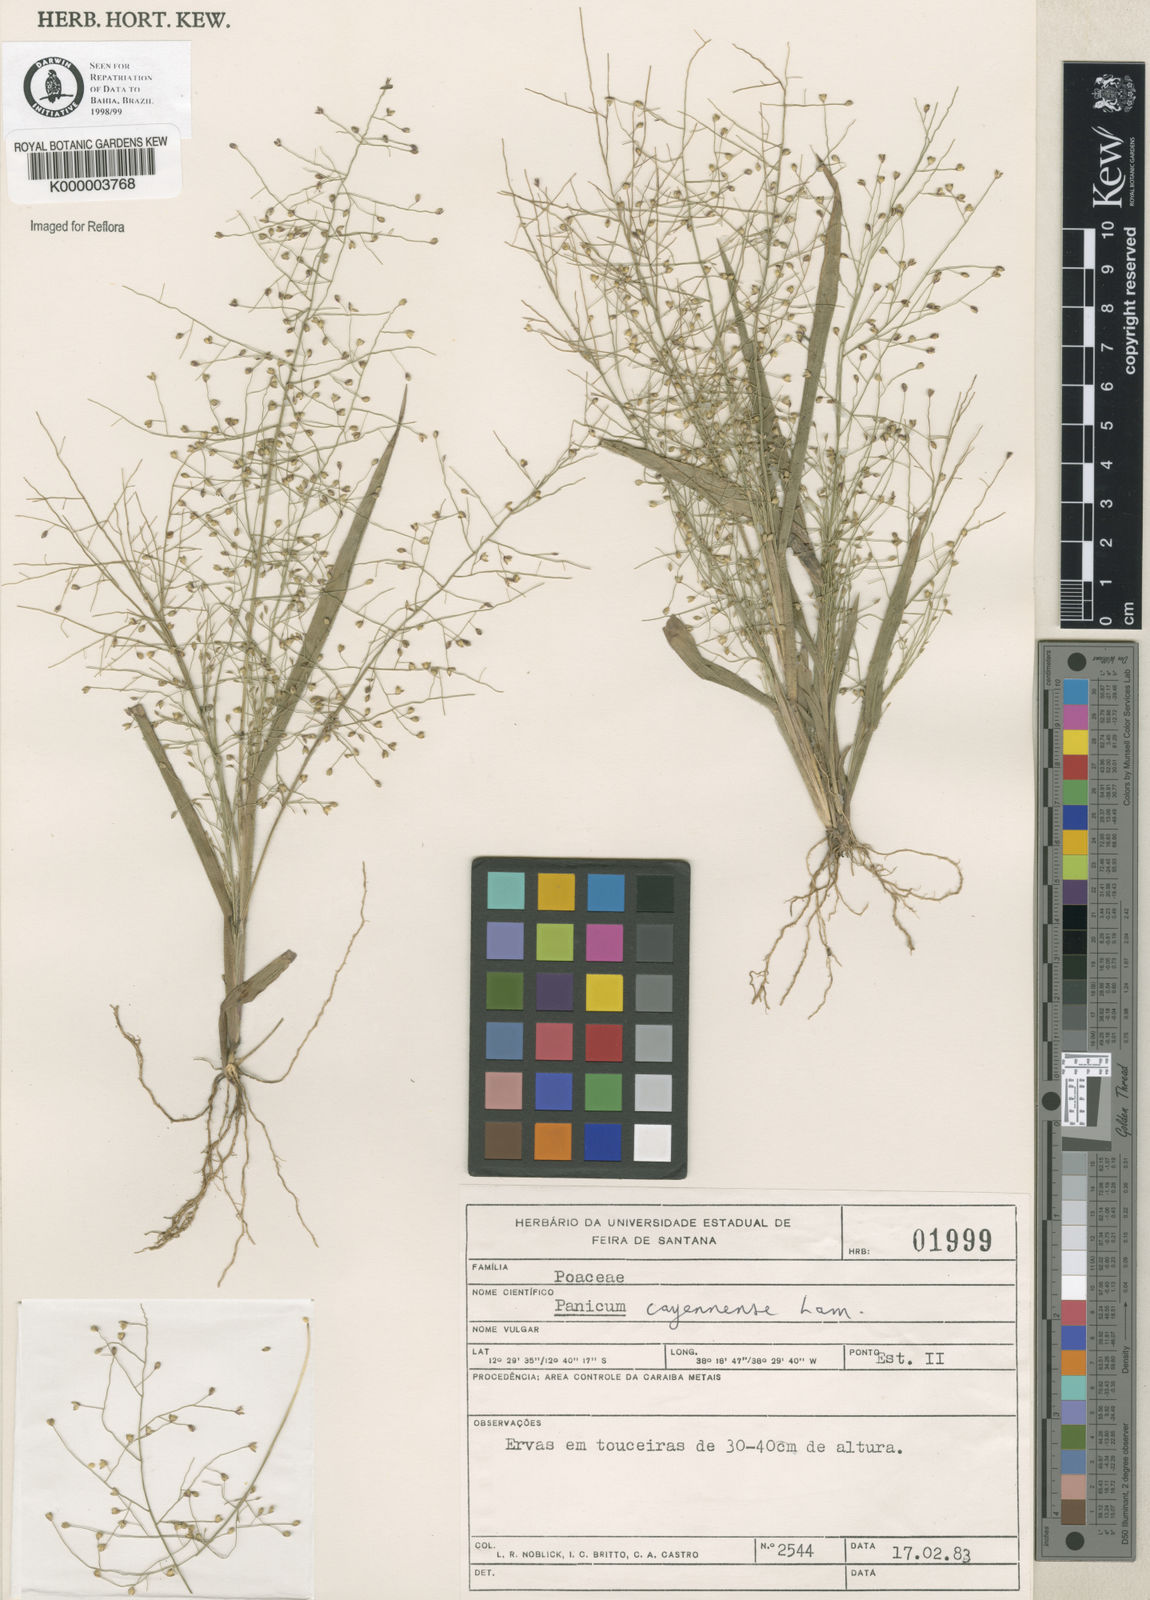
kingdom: Plantae
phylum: Tracheophyta
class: Liliopsida
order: Poales
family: Poaceae
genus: Panicum
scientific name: Panicum cayennense
